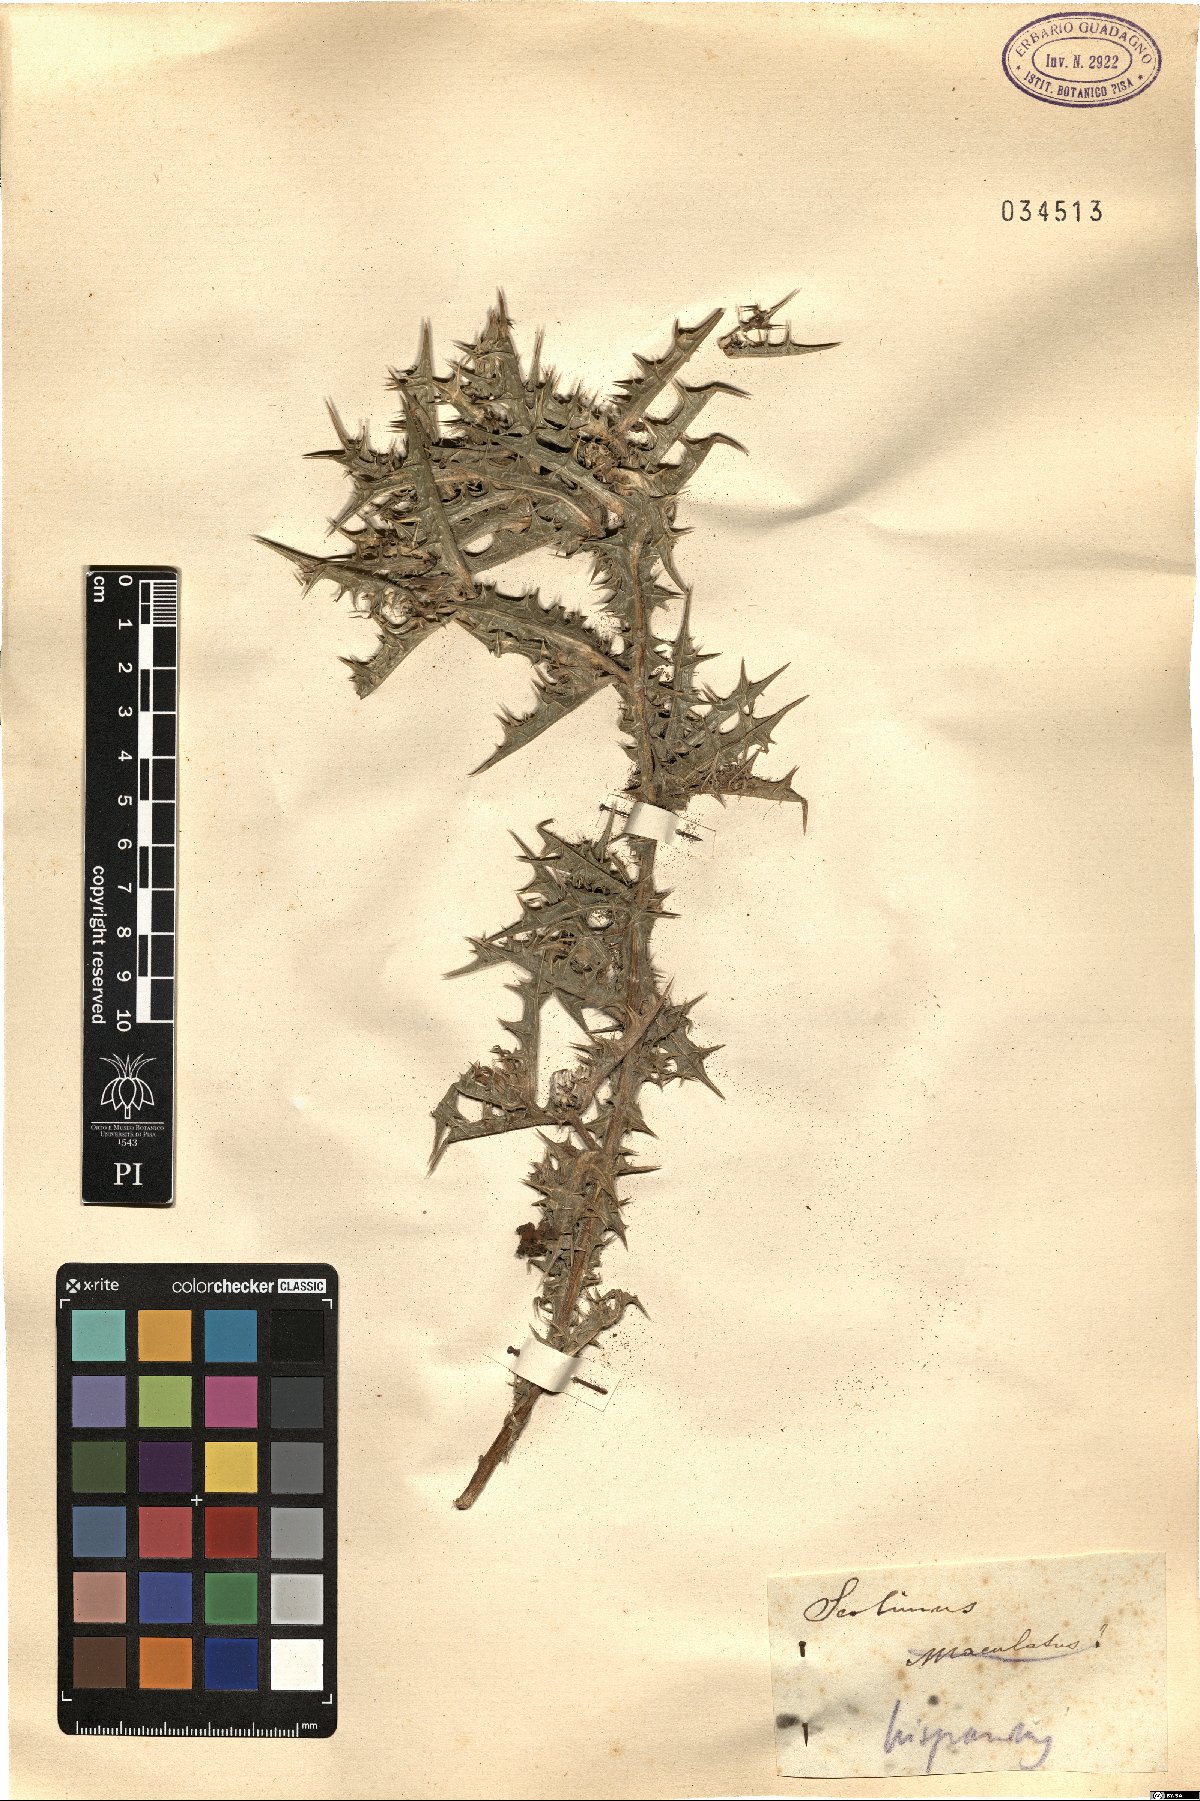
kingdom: Plantae
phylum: Tracheophyta
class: Magnoliopsida
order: Asterales
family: Asteraceae
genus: Scolymus
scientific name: Scolymus hispanicus
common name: Golden thistle
